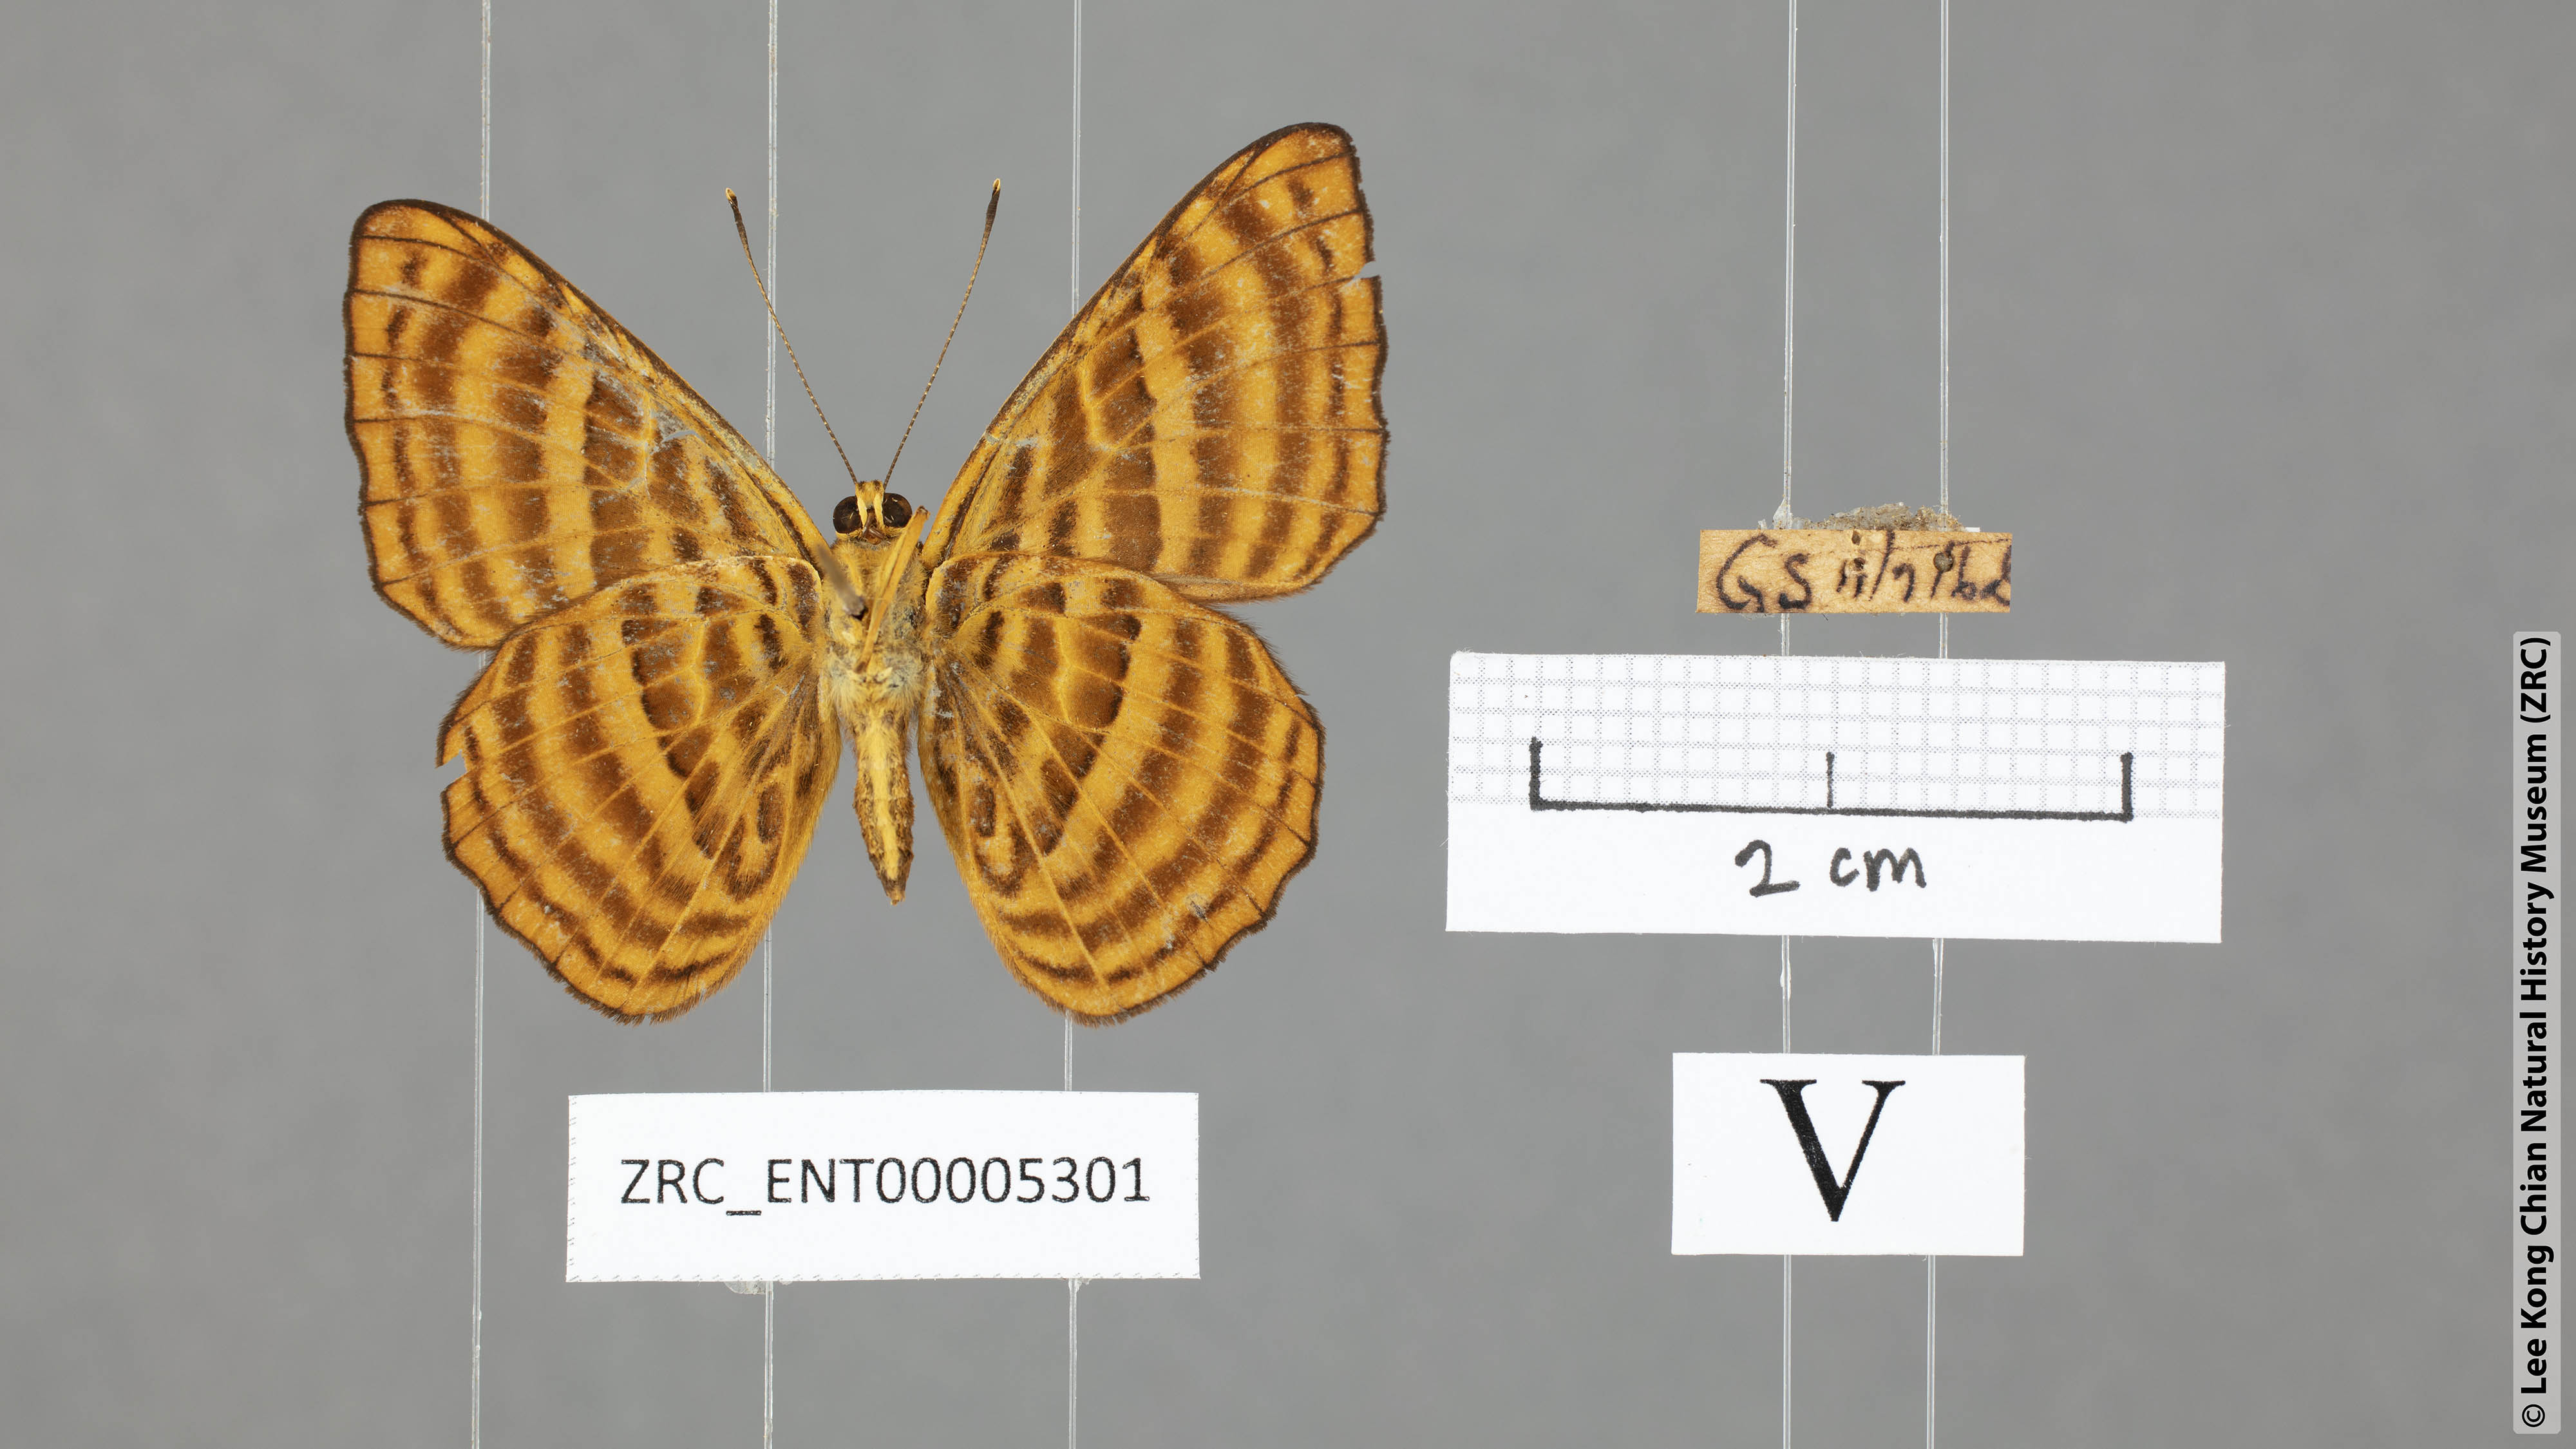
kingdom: Animalia
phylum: Arthropoda
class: Insecta
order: Lepidoptera
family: Riodinidae
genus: Zemeros
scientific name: Zemeros emesoides
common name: Malay punchinello
